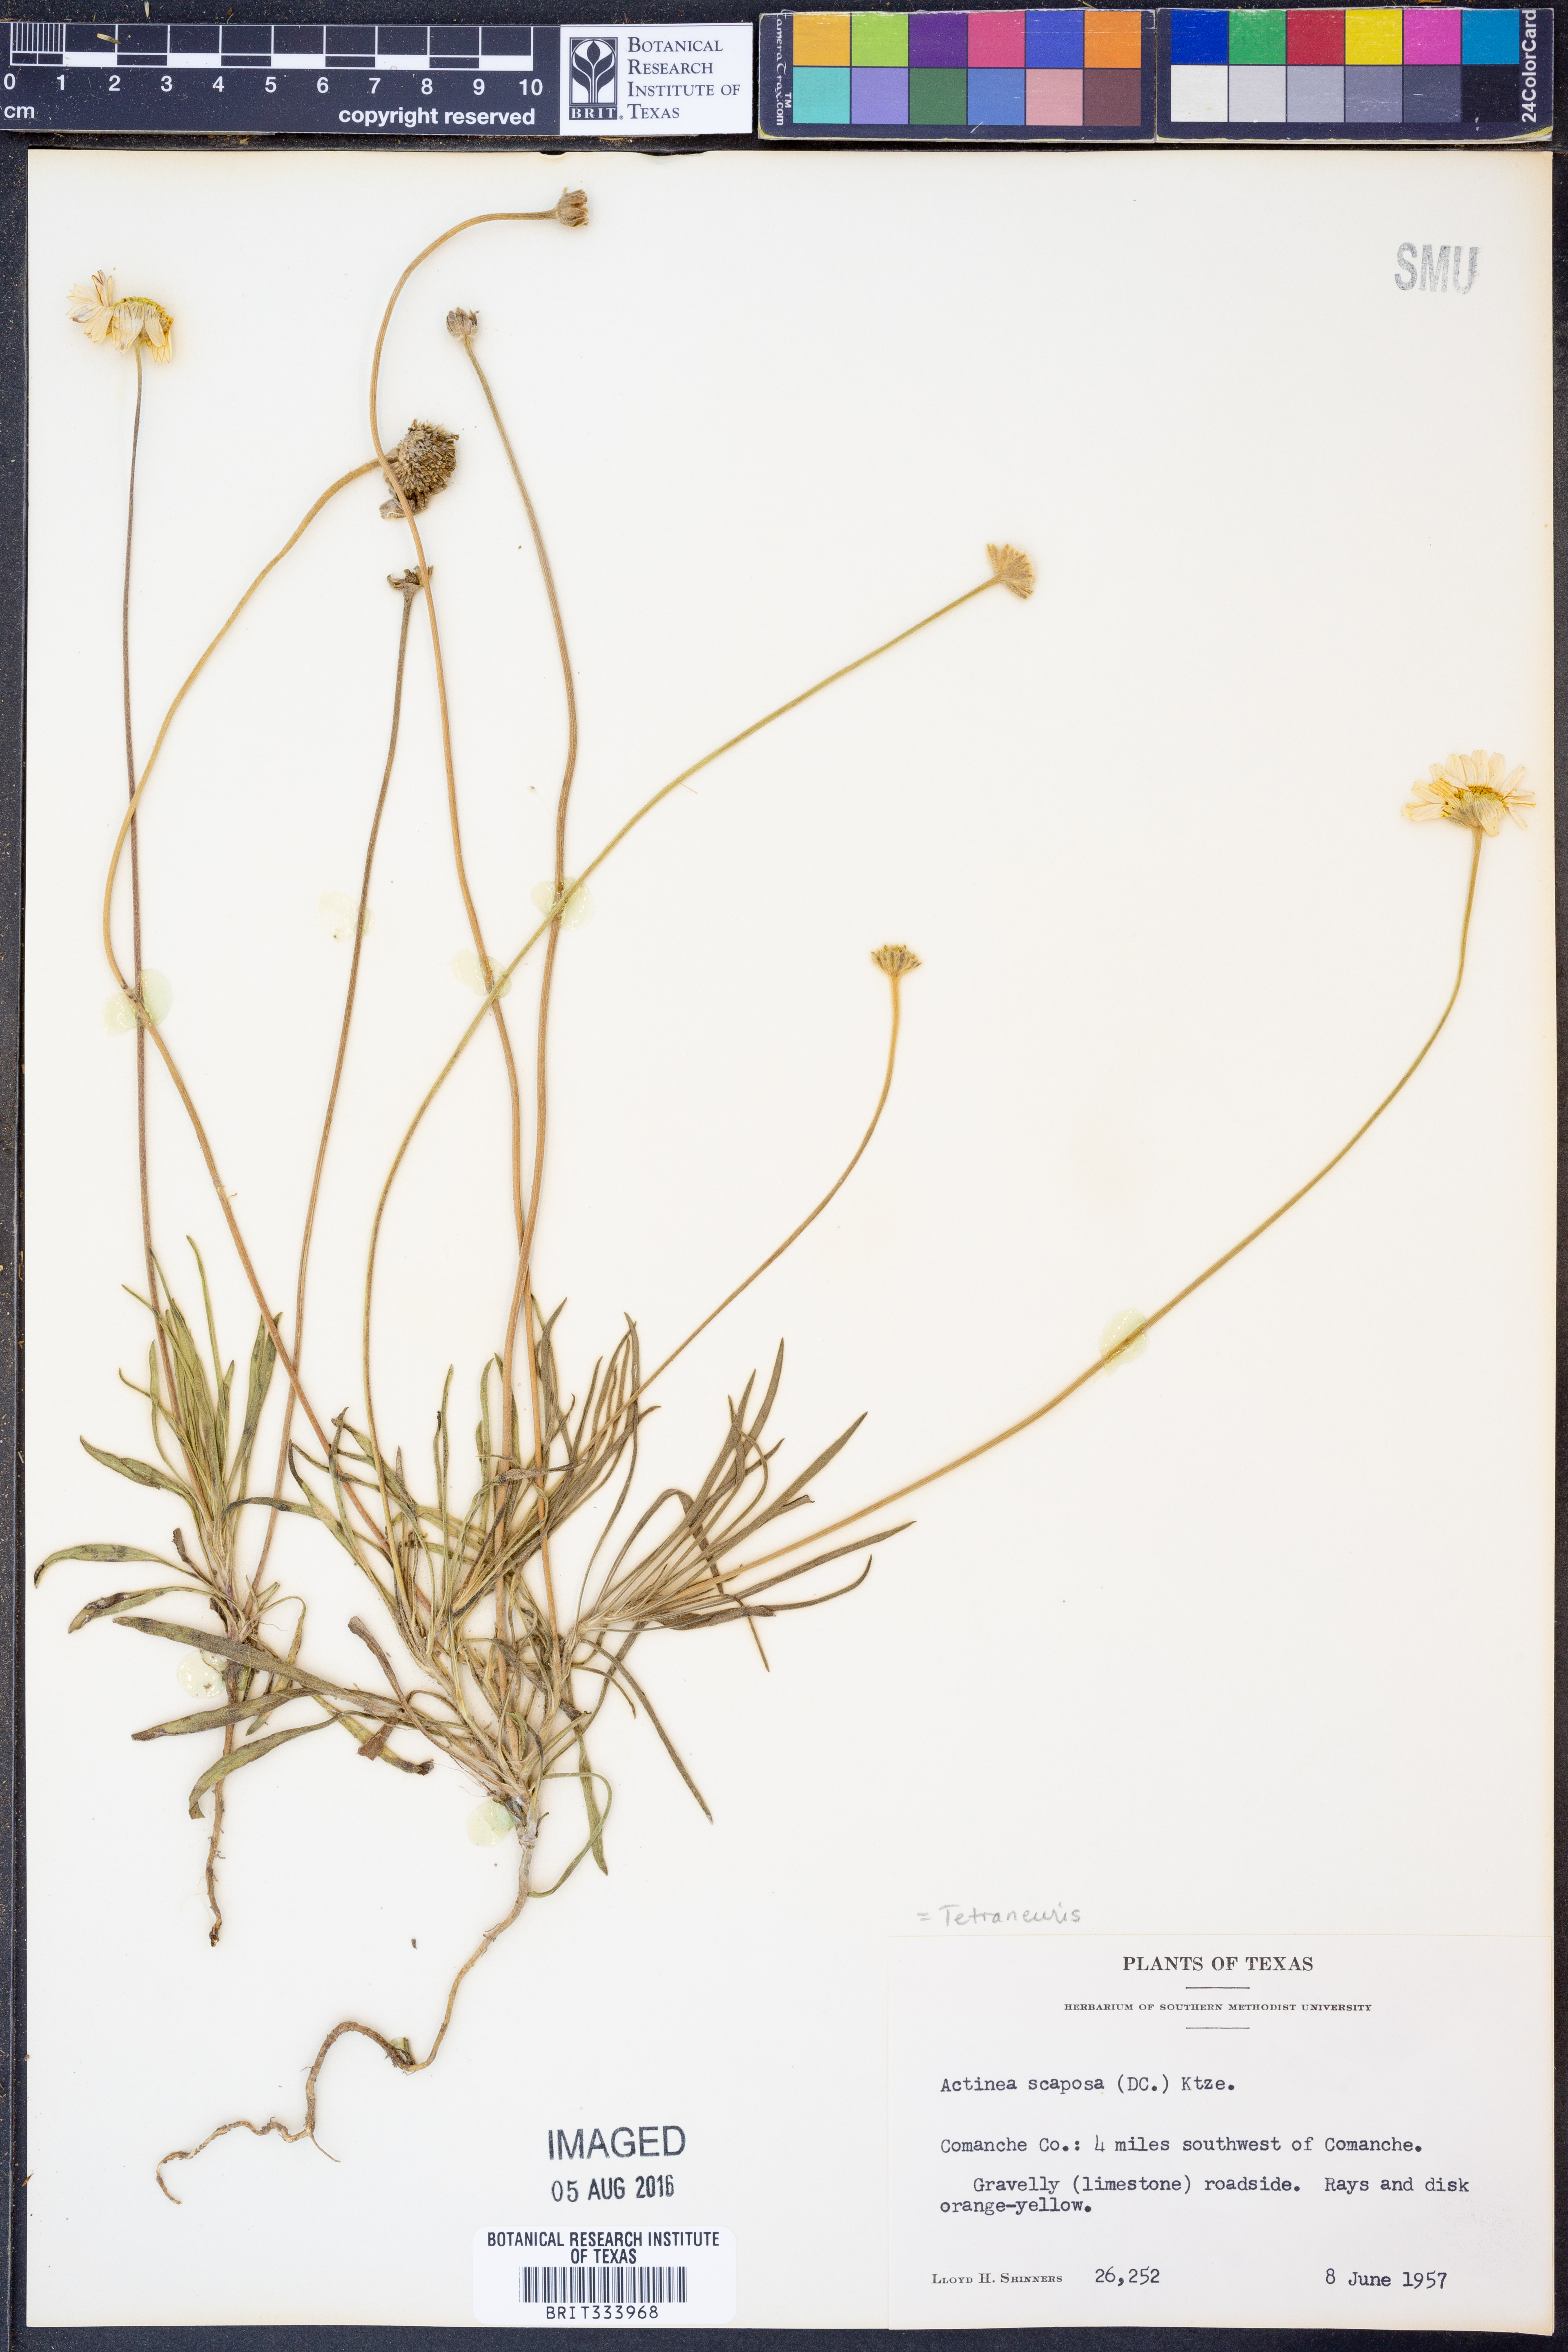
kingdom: Plantae
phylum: Tracheophyta
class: Magnoliopsida
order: Asterales
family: Asteraceae
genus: Tetraneuris
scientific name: Tetraneuris scaposa
